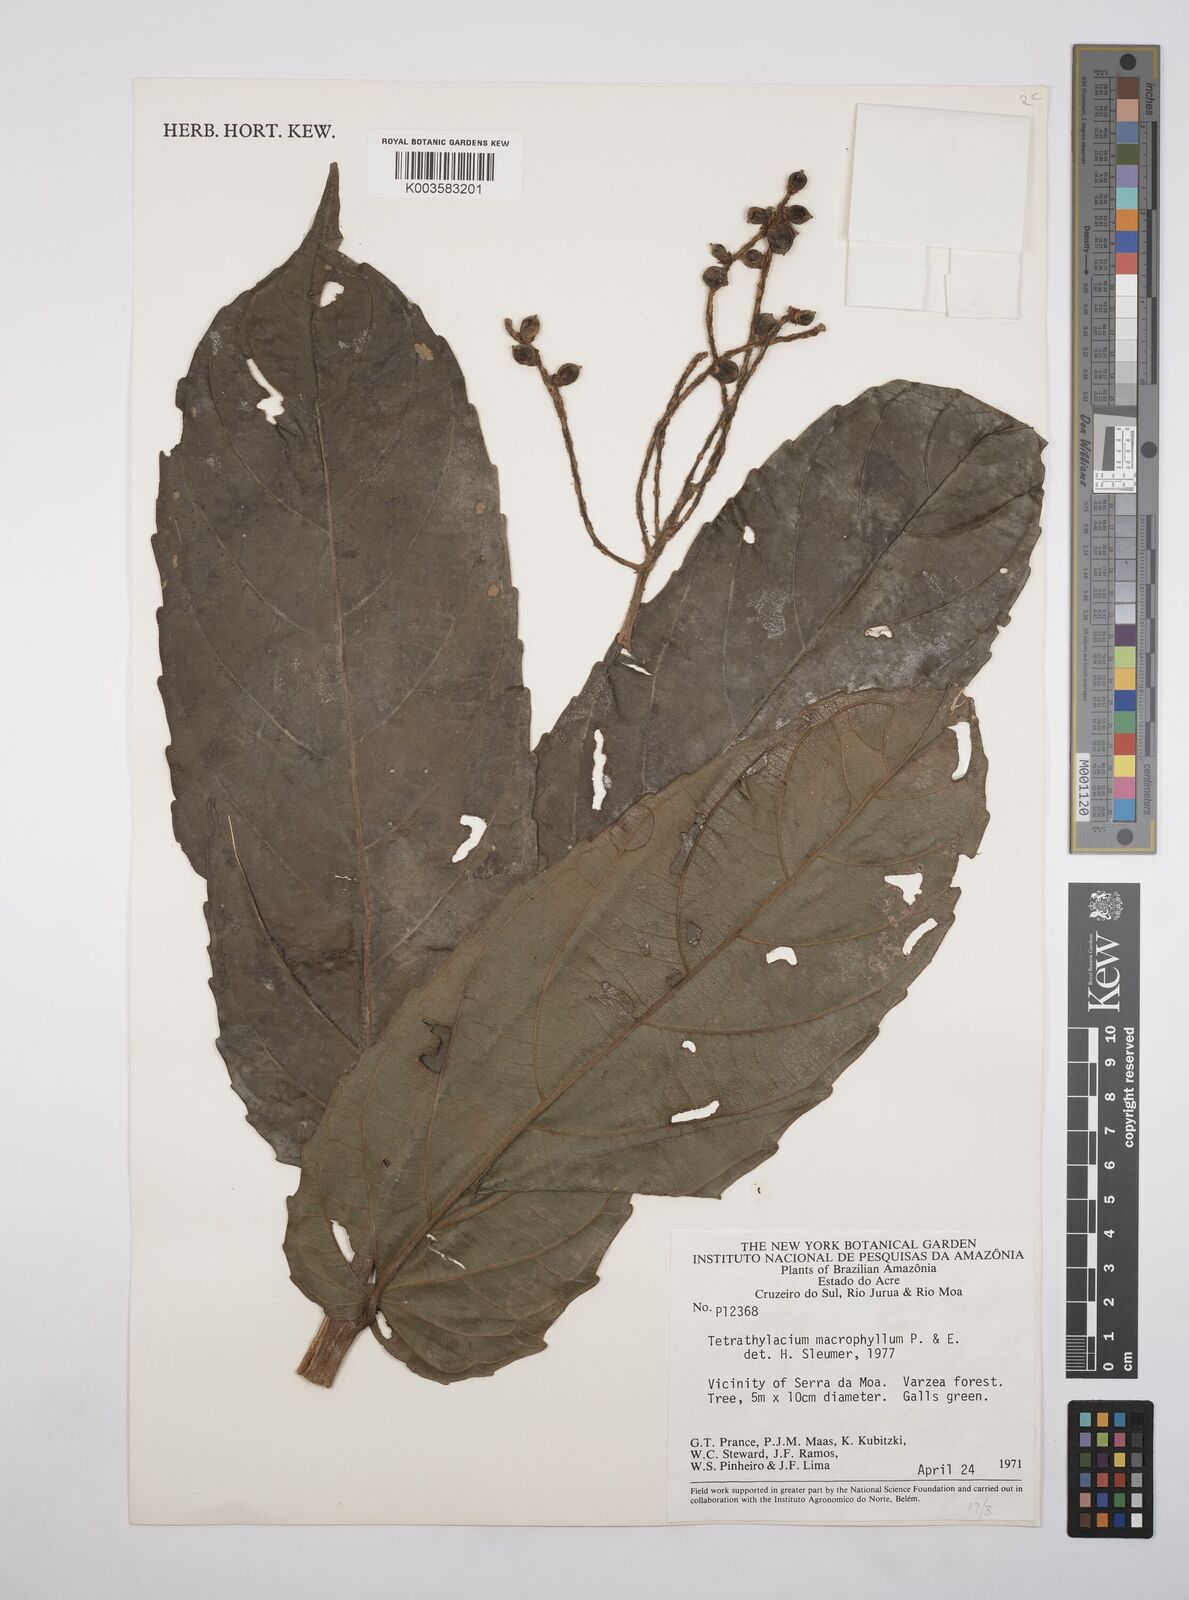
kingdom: Plantae
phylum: Tracheophyta
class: Magnoliopsida
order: Malpighiales
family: Salicaceae
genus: Tetrathylacium
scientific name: Tetrathylacium macrophyllum
